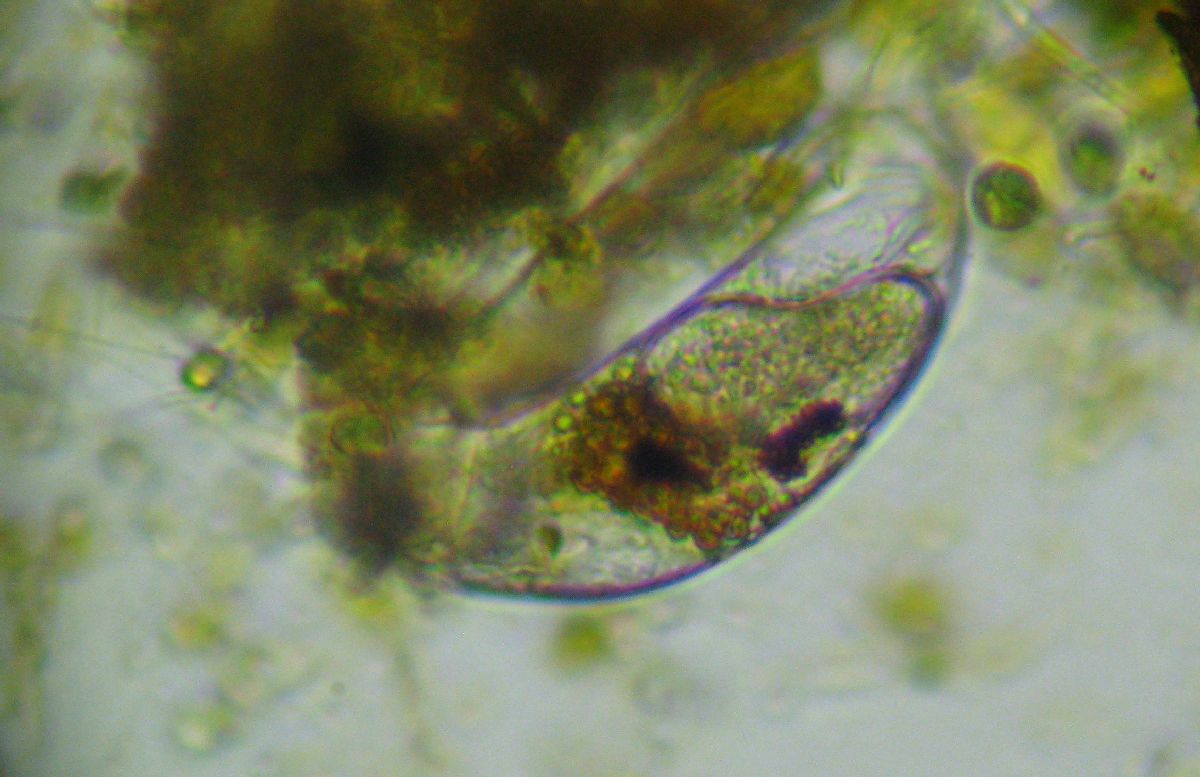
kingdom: Animalia
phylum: Rotifera
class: Eurotatoria
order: Ploima
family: Trichocercidae
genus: Trichocerca
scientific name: Trichocerca weberi
